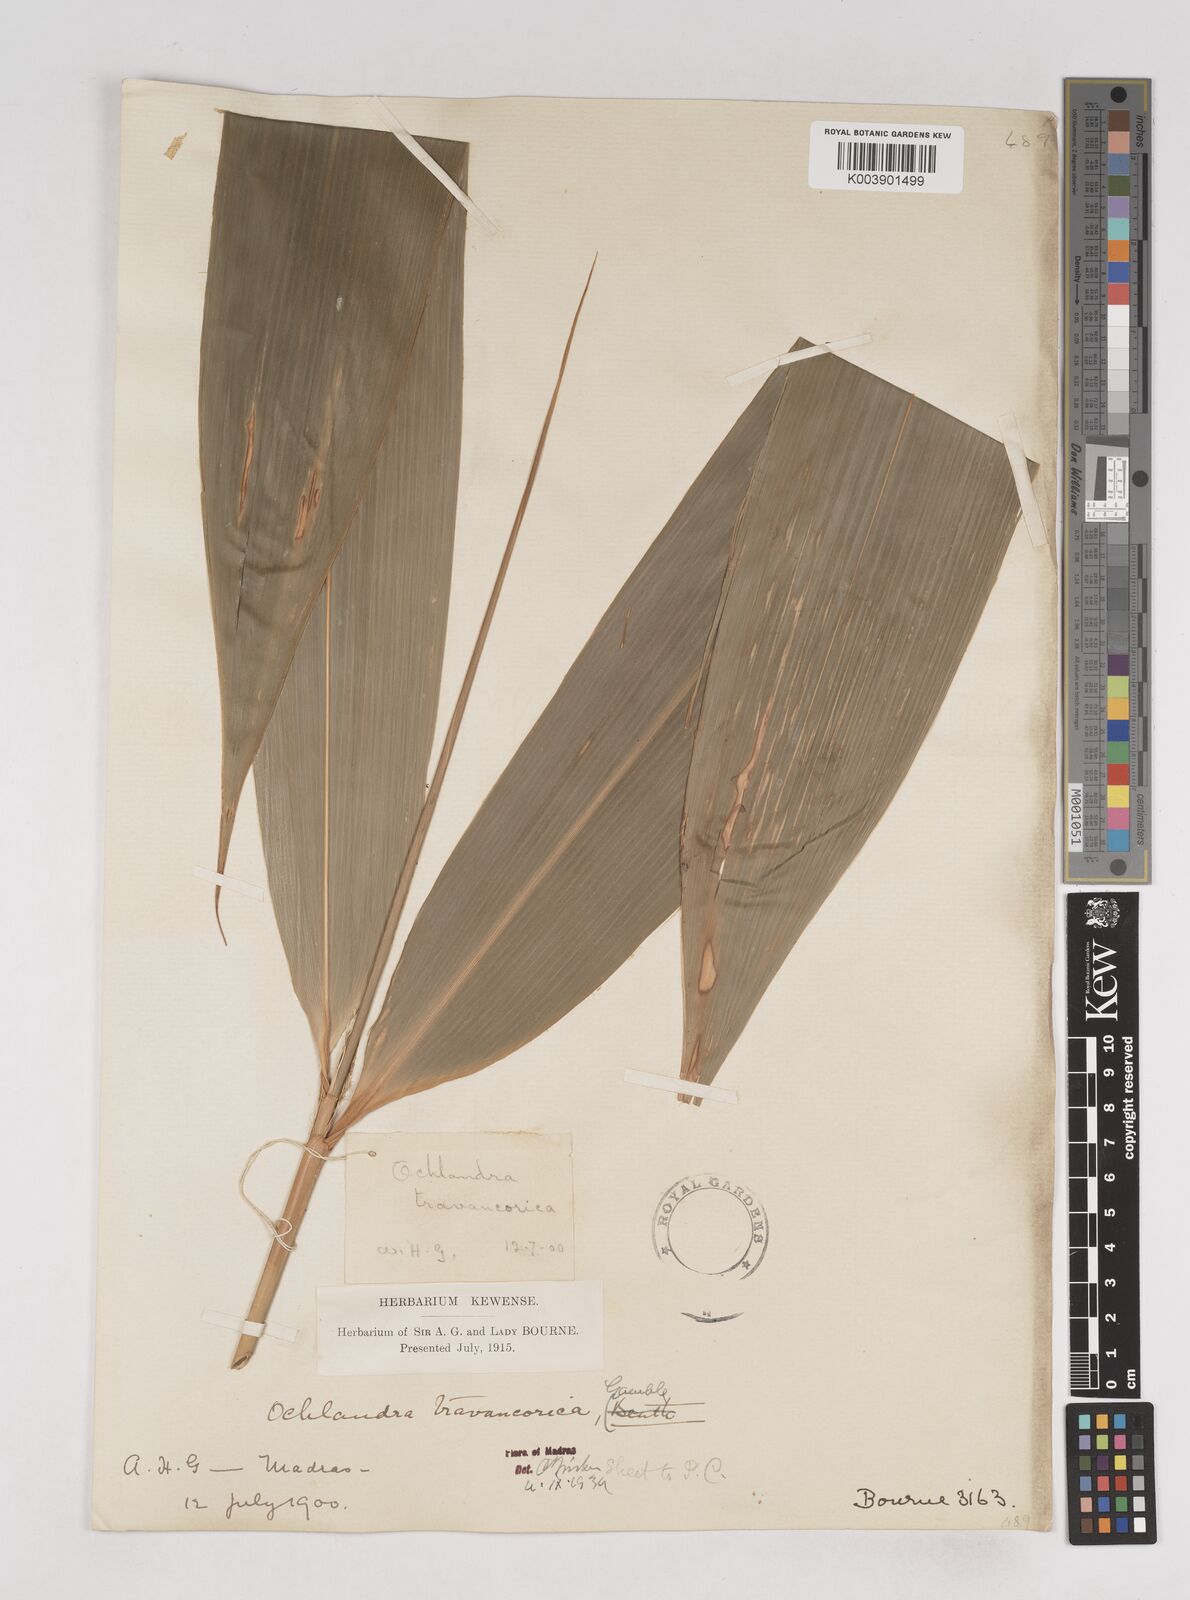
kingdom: Plantae
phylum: Tracheophyta
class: Liliopsida
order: Poales
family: Poaceae
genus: Ochlandra
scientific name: Ochlandra travancorica
